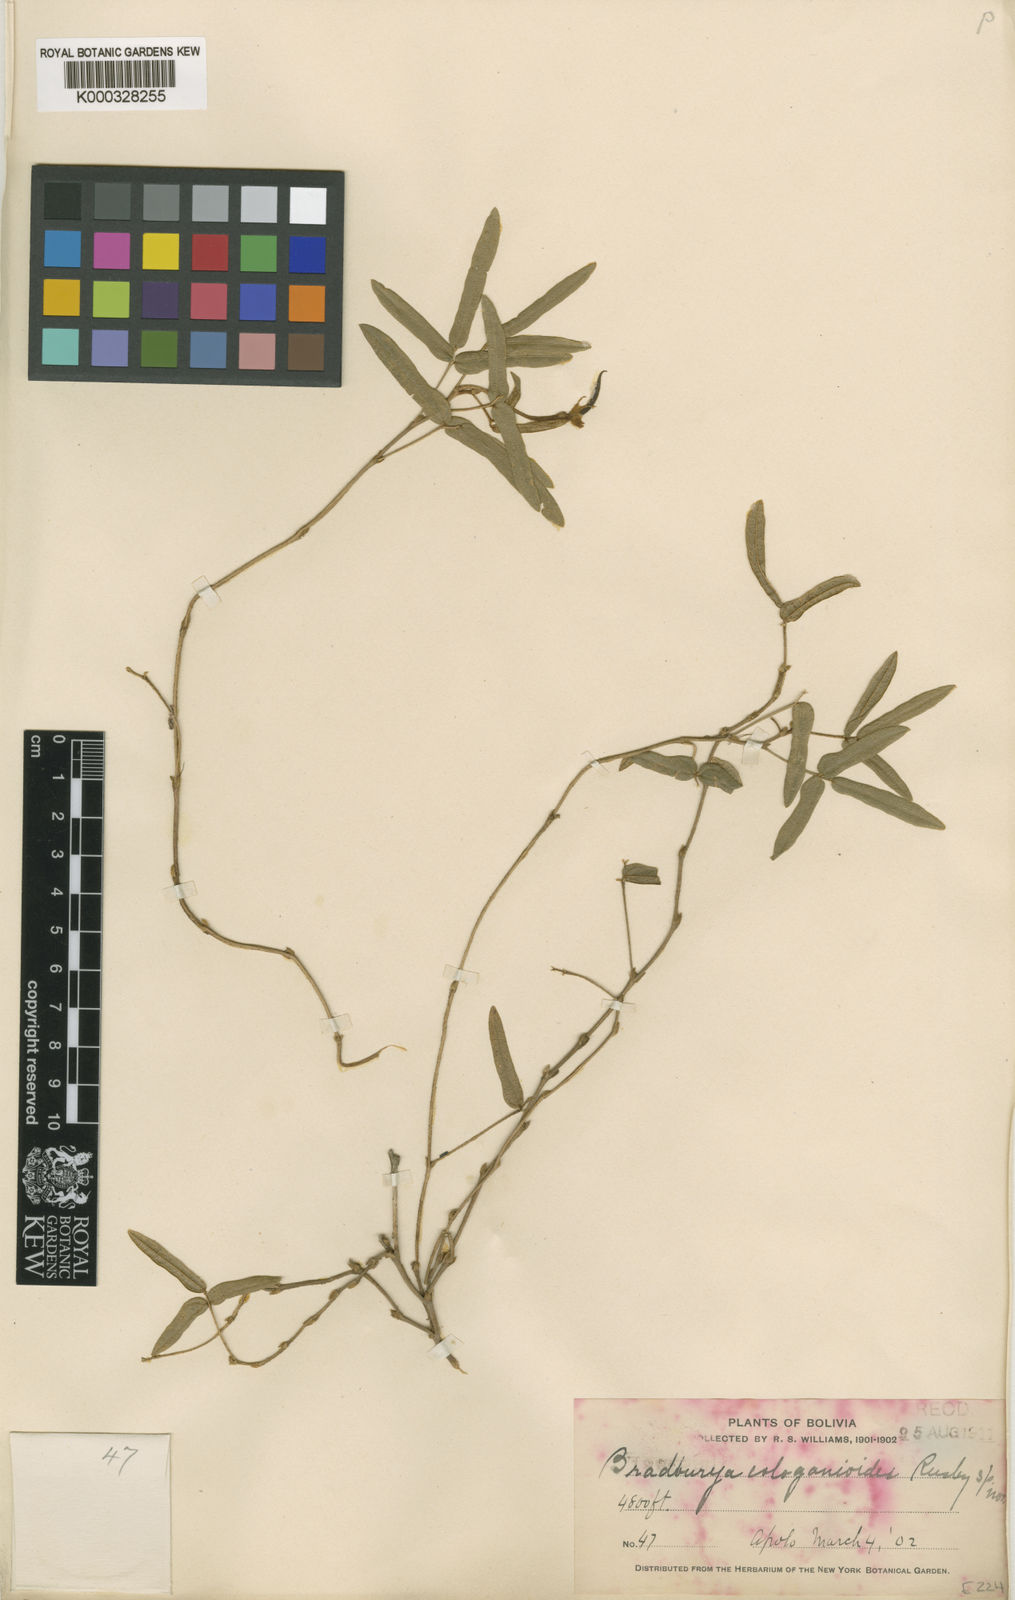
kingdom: Plantae
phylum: Tracheophyta
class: Magnoliopsida
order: Fabales
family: Fabaceae
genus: Centrosema
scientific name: Centrosema
